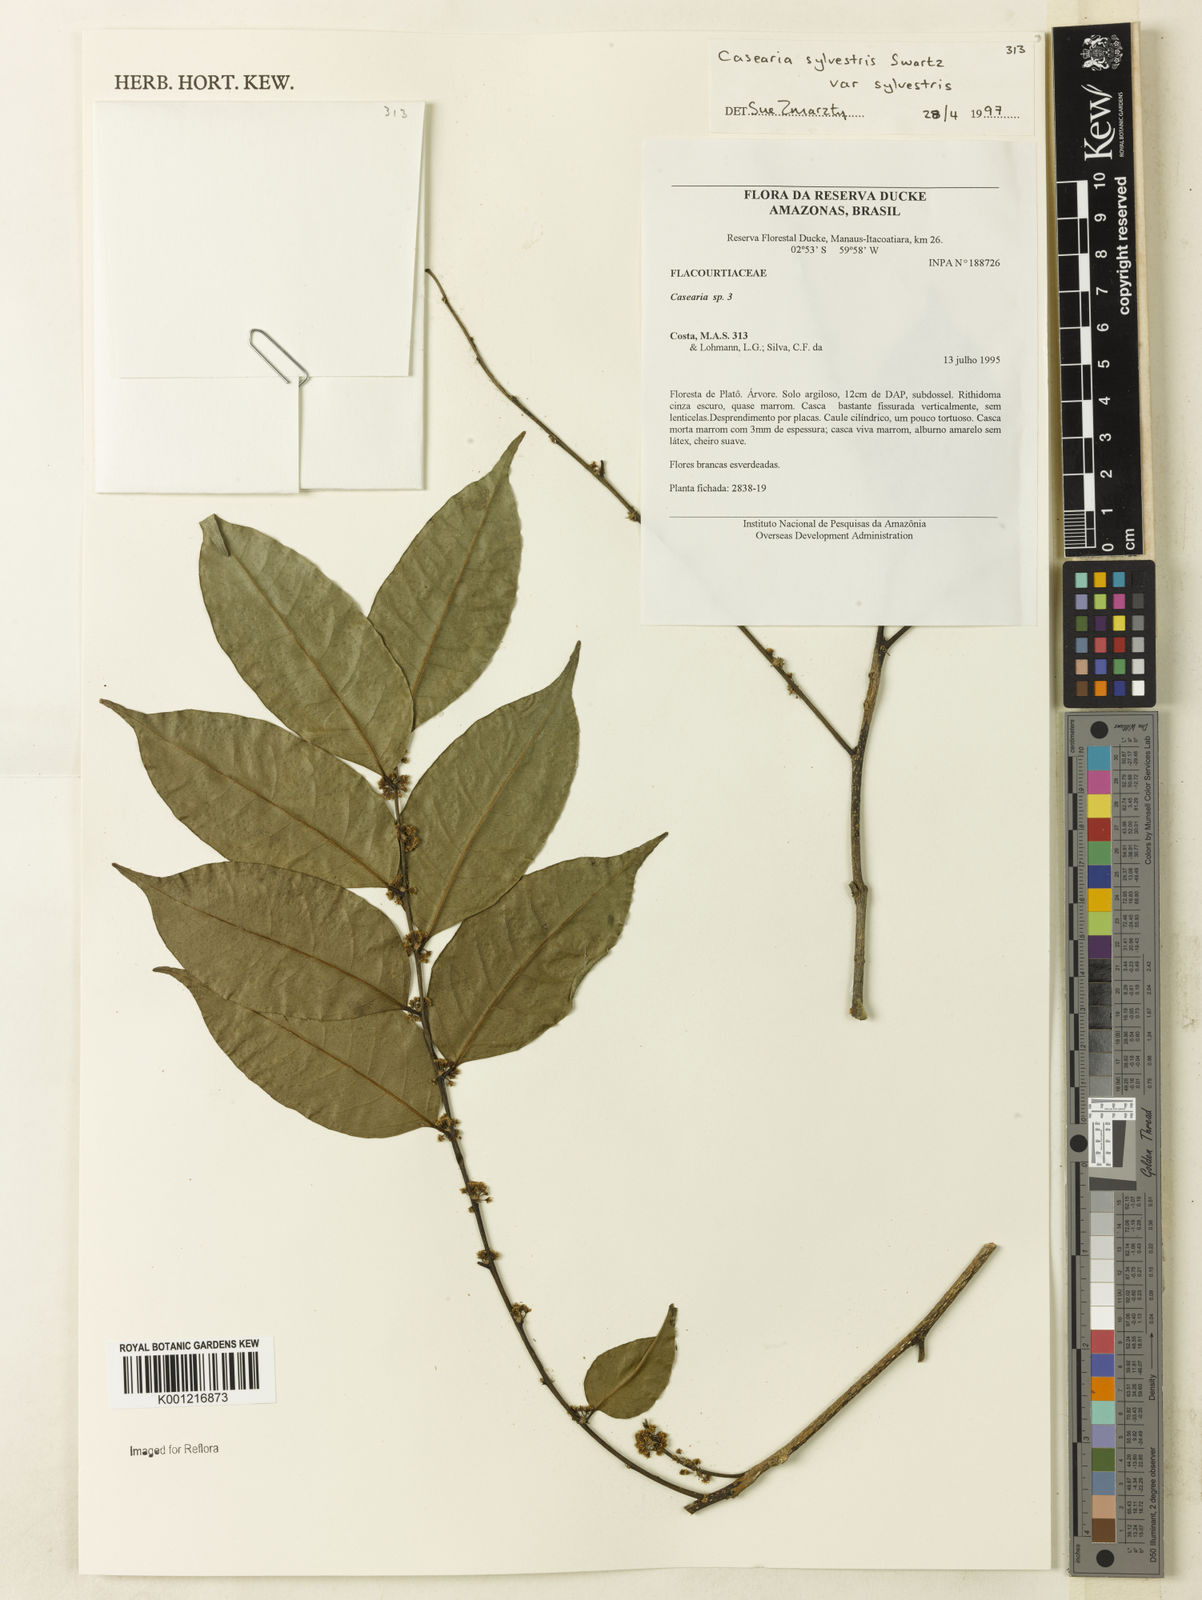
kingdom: Plantae
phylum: Tracheophyta
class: Magnoliopsida
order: Malpighiales
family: Salicaceae
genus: Casearia
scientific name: Casearia sylvestris
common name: Wild sage
